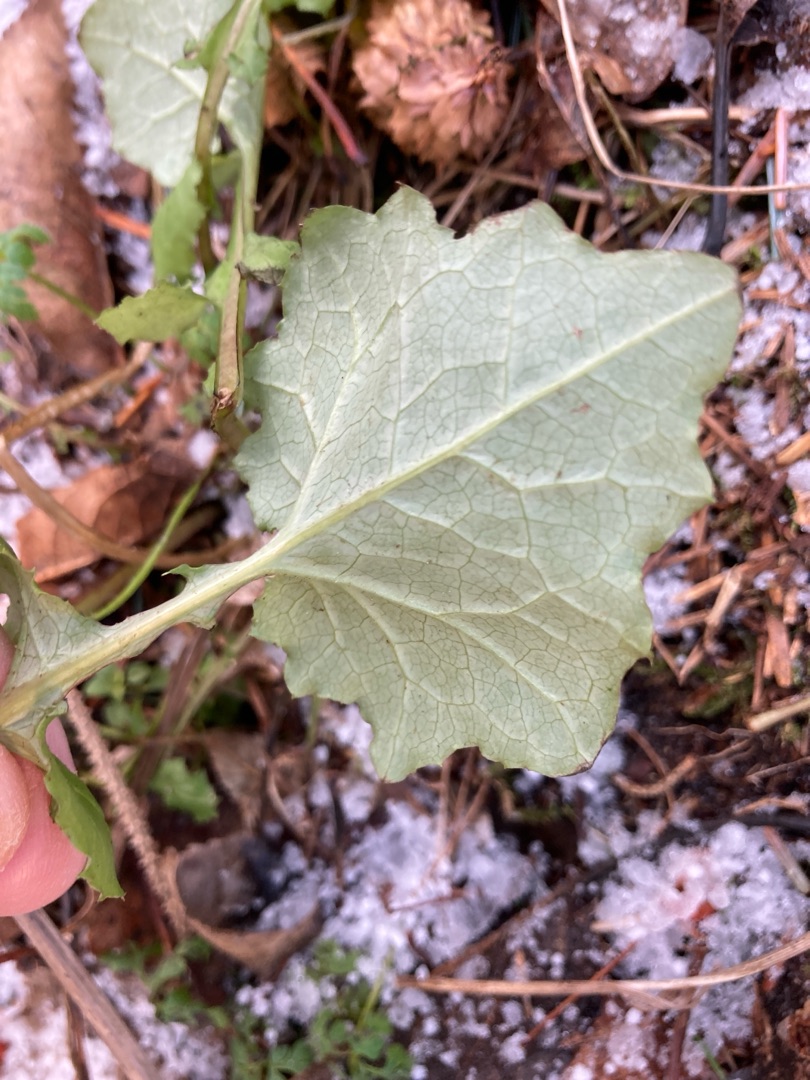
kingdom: Plantae
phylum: Tracheophyta
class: Magnoliopsida
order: Asterales
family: Asteraceae
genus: Mycelis
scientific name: Mycelis muralis
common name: Skov-salat
